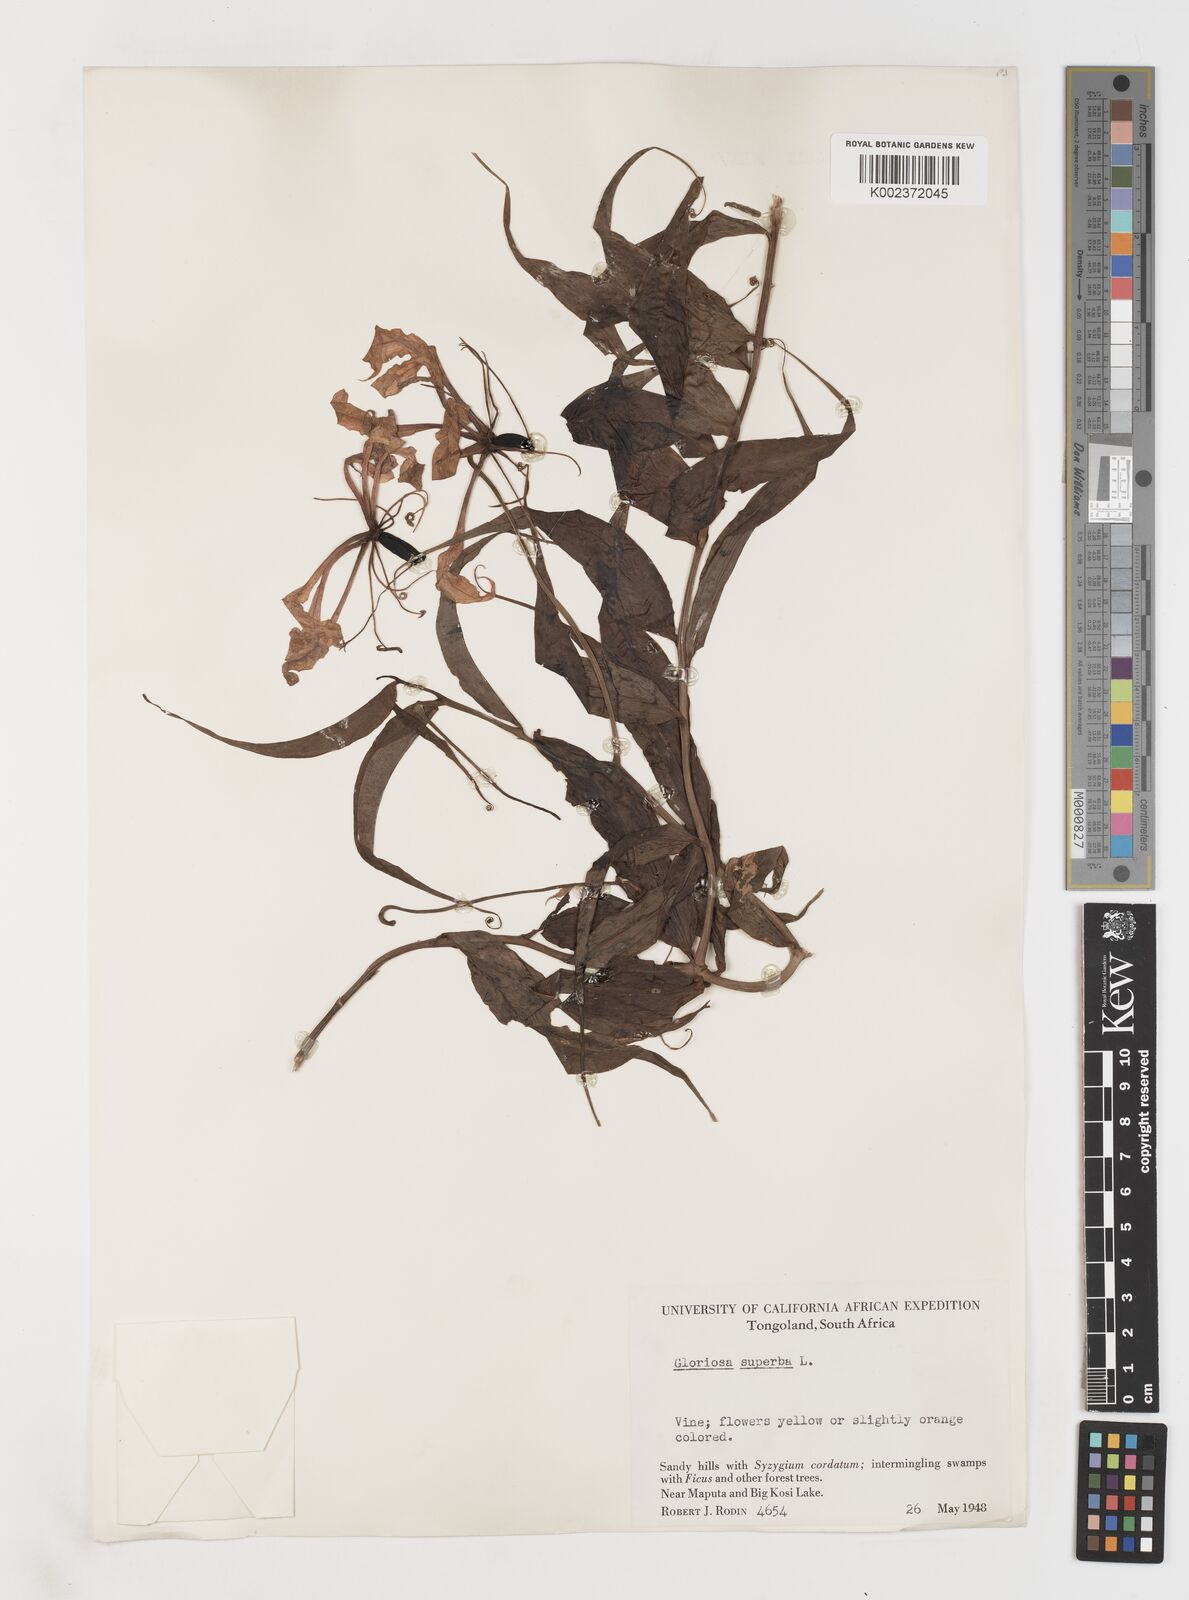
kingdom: Plantae
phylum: Tracheophyta
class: Liliopsida
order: Liliales
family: Colchicaceae
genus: Gloriosa
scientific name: Gloriosa simplex
